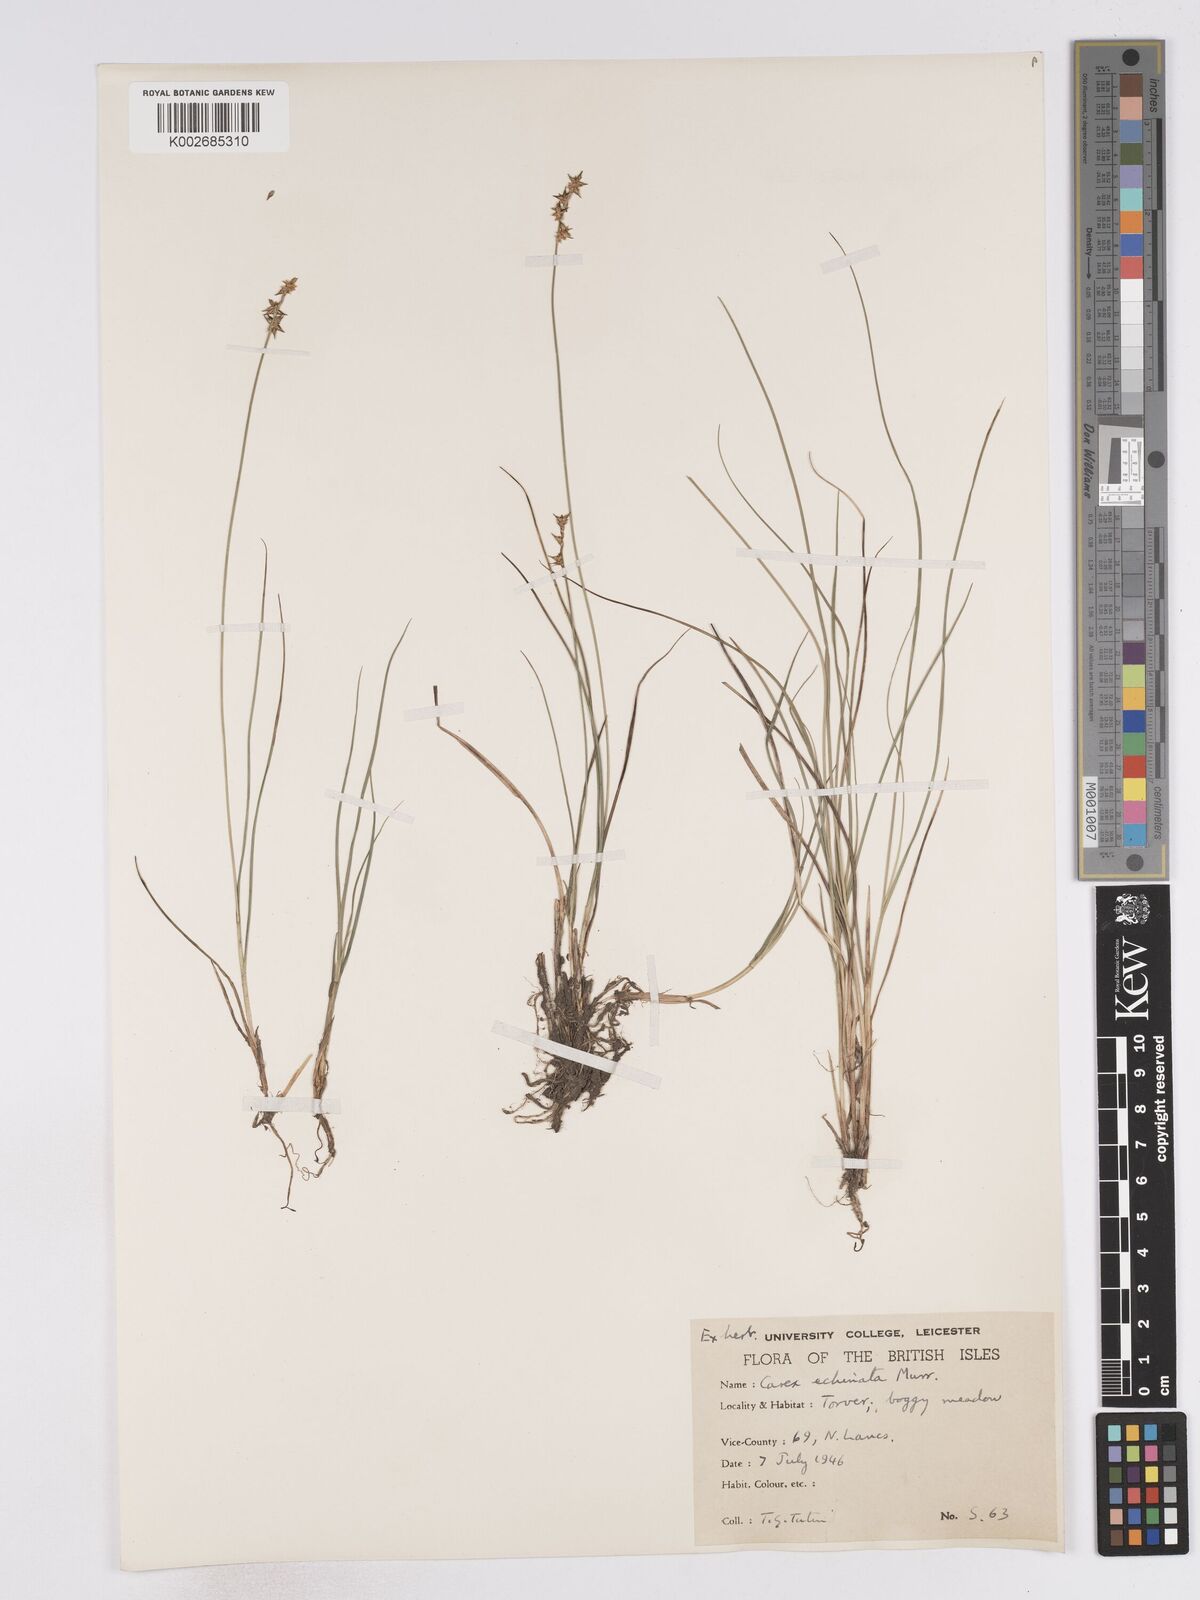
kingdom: Plantae
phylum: Tracheophyta
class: Liliopsida
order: Poales
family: Cyperaceae
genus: Carex
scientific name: Carex echinata
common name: Star sedge
